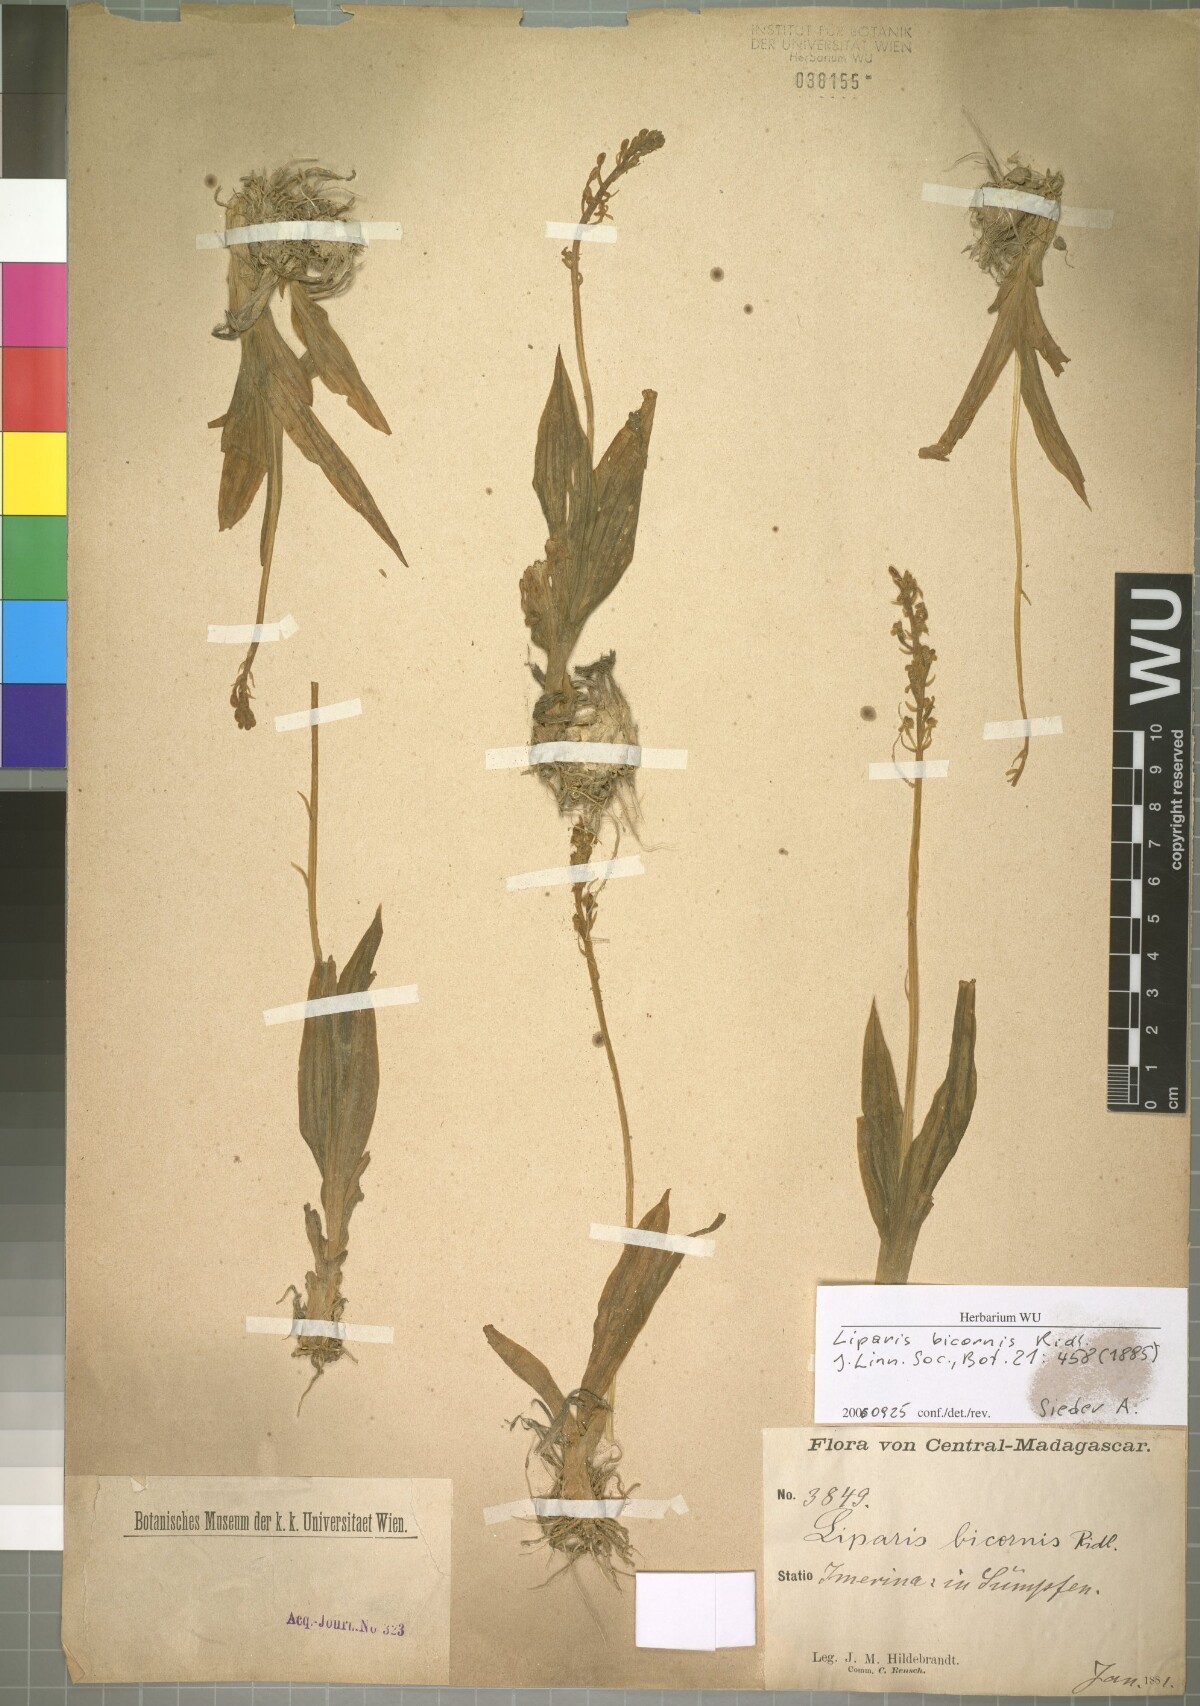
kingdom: Plantae
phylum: Tracheophyta
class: Liliopsida
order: Asparagales
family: Orchidaceae
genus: Liparis
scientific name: Liparis bicornis
